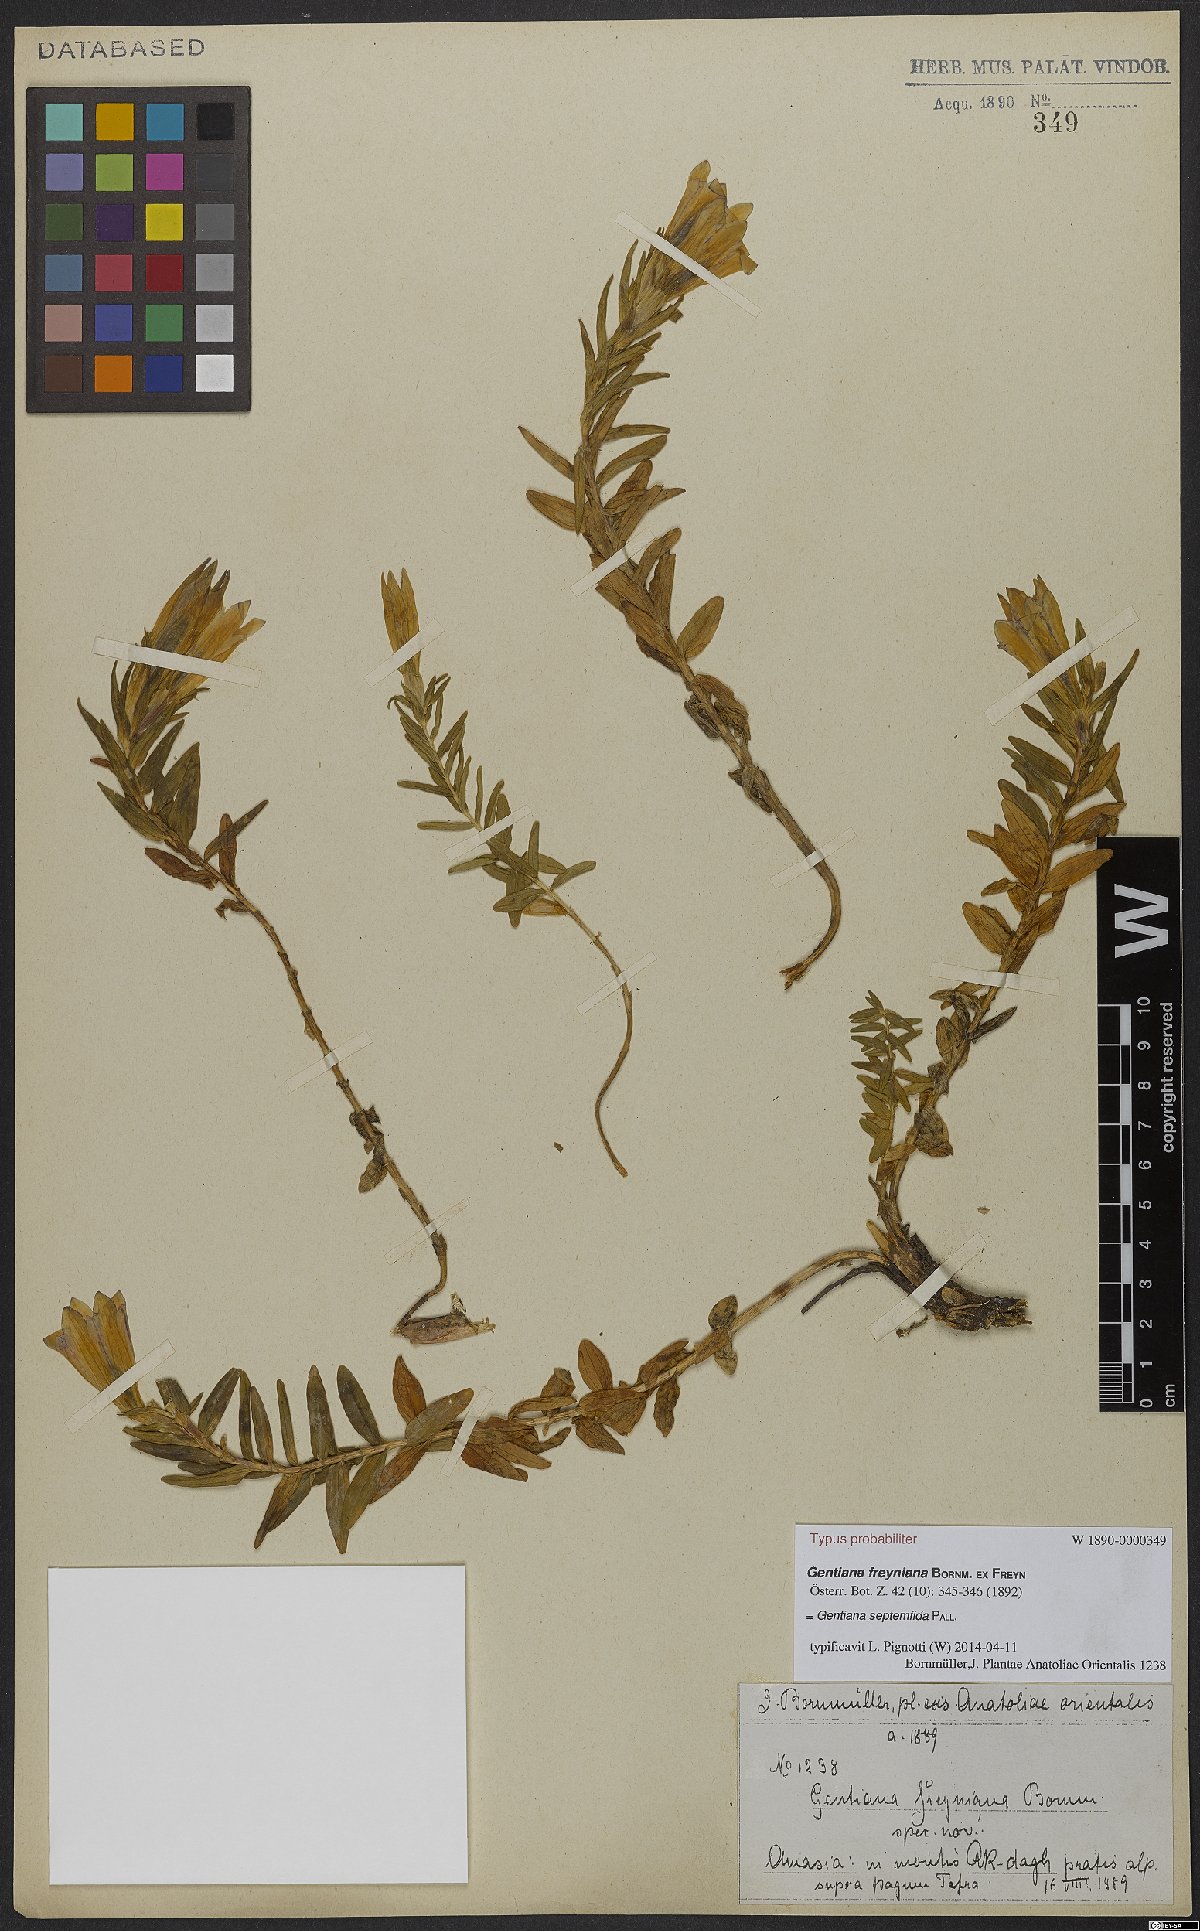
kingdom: Plantae
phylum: Tracheophyta
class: Magnoliopsida
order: Gentianales
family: Gentianaceae
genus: Gentiana
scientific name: Gentiana septemfida
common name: Crested gentian
